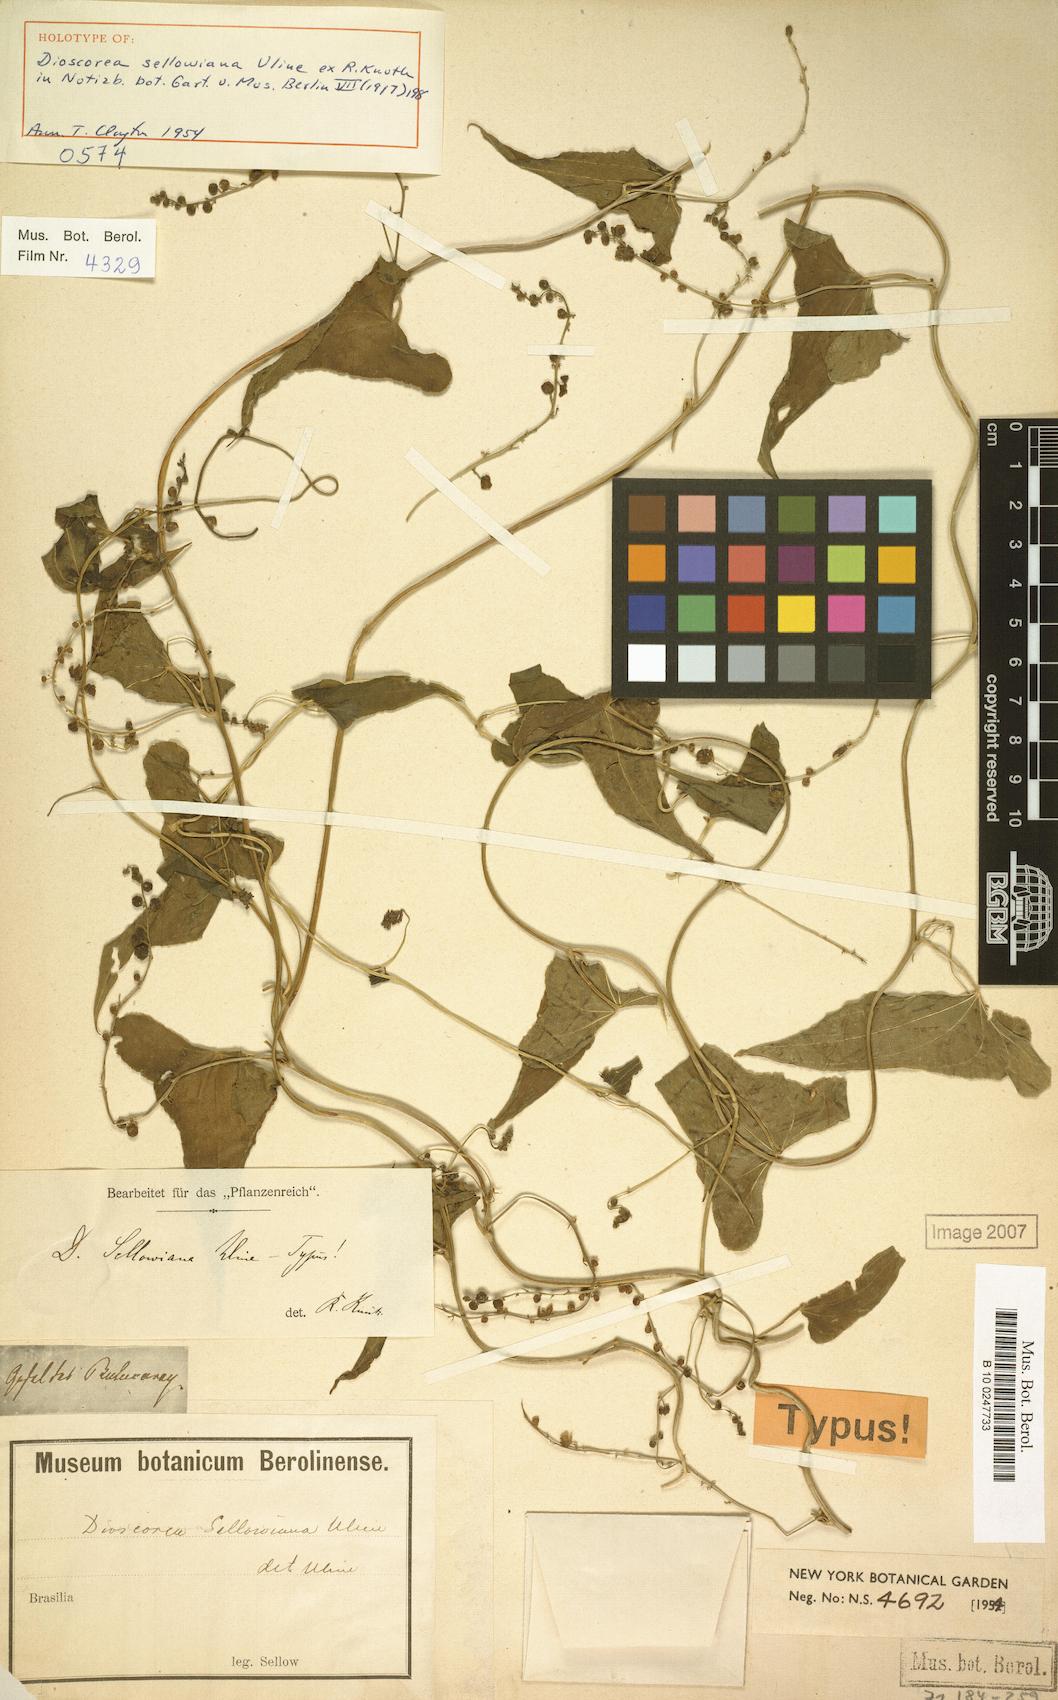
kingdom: Plantae
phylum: Tracheophyta
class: Liliopsida
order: Dioscoreales
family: Dioscoreaceae
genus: Dioscorea
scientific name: Dioscorea sellowiana
